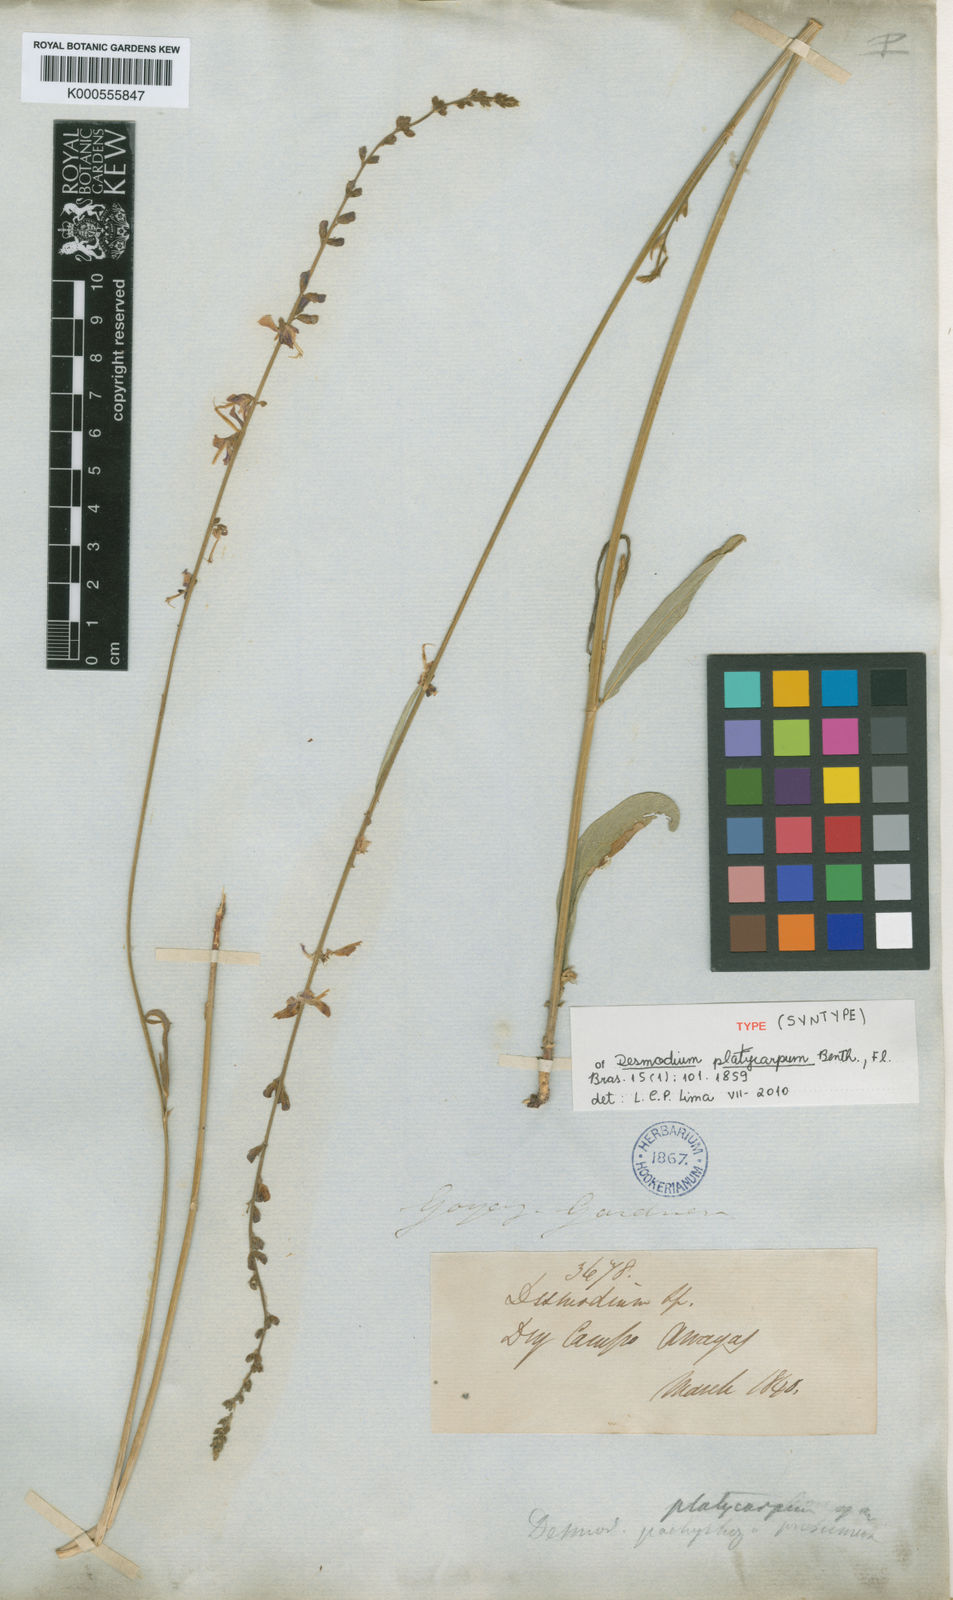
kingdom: Plantae
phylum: Tracheophyta
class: Magnoliopsida
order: Fabales
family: Fabaceae
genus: Desmodium
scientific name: Desmodium platycarpum
